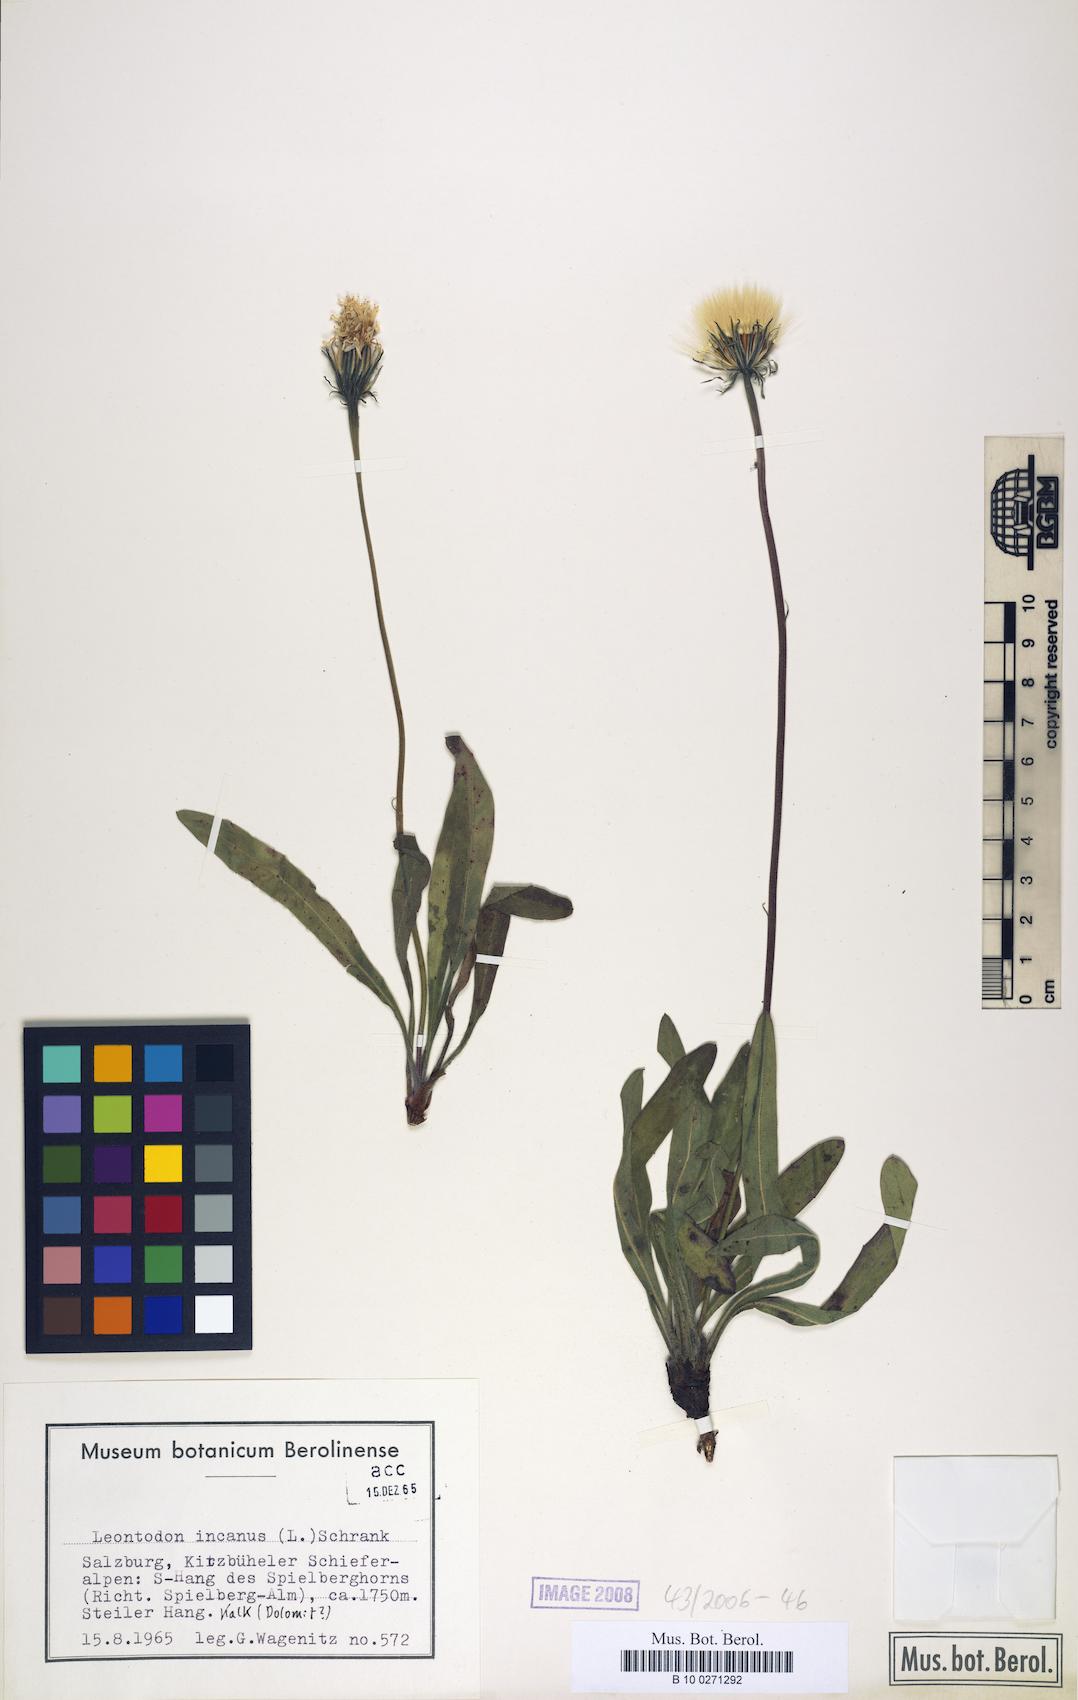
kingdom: Plantae
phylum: Tracheophyta
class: Magnoliopsida
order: Asterales
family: Asteraceae
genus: Leontodon
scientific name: Leontodon incanus
